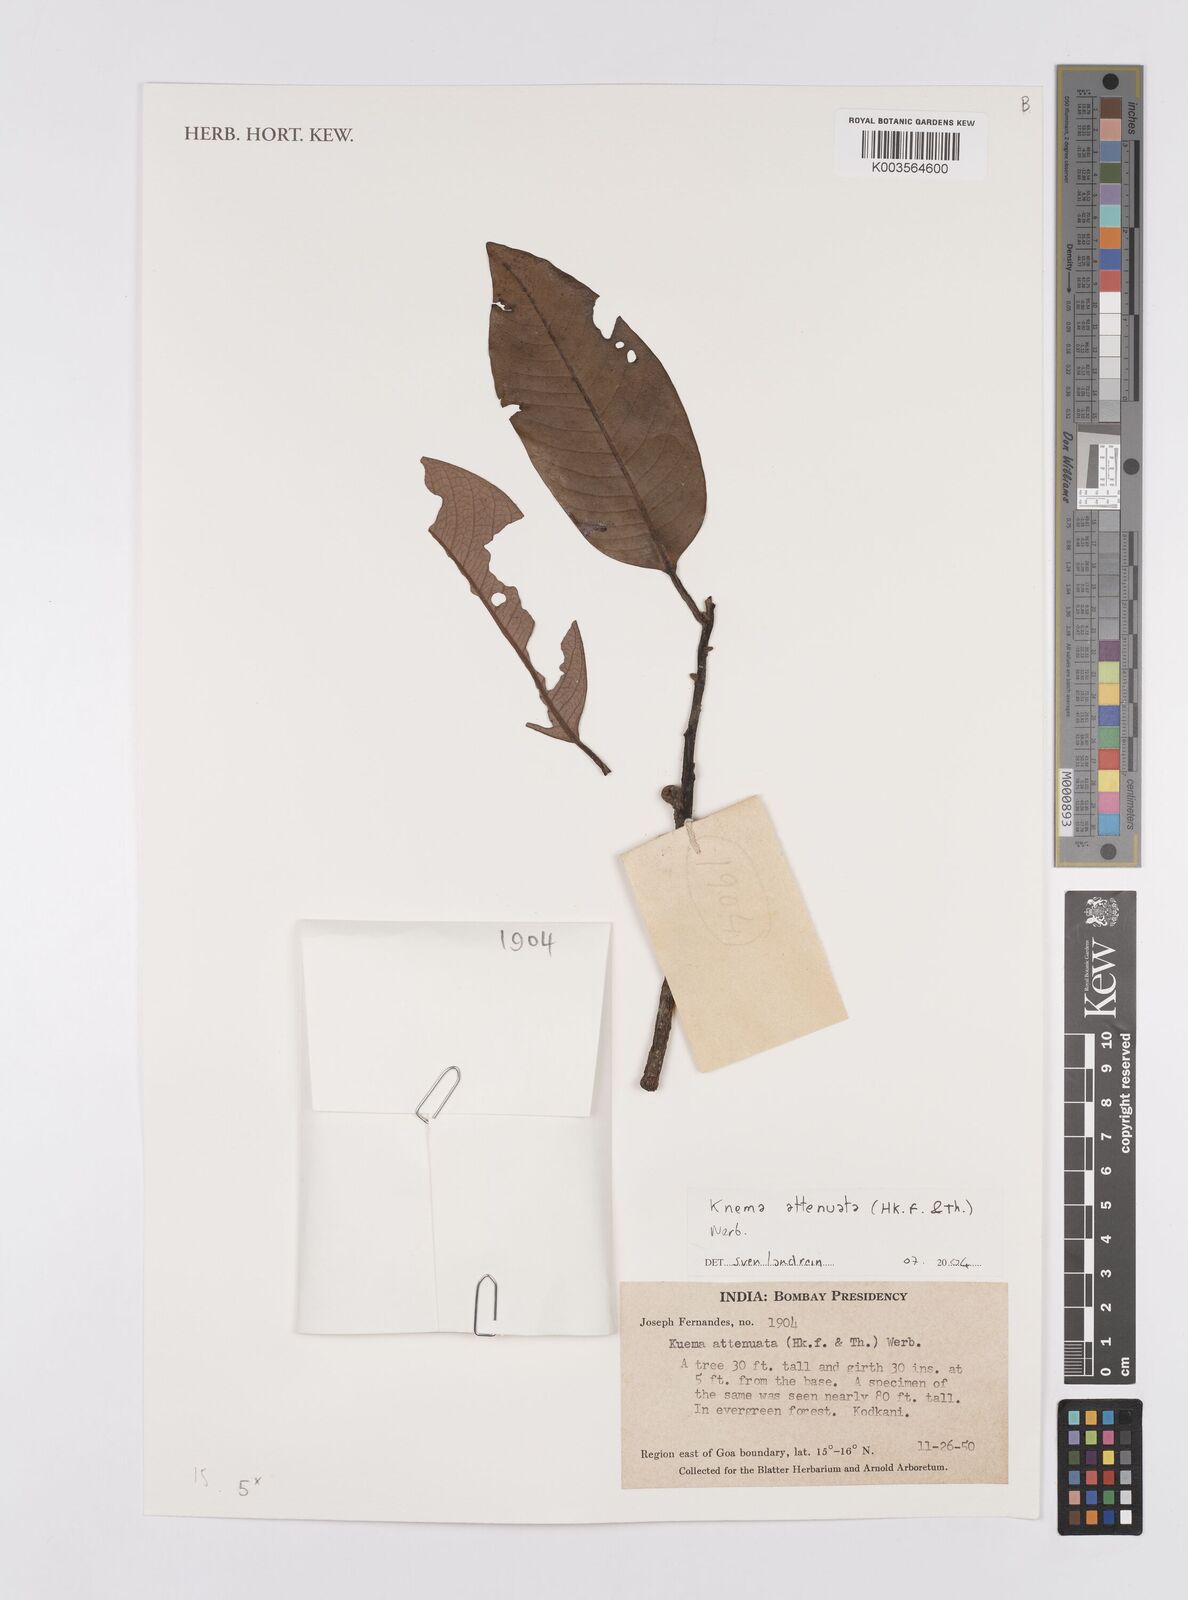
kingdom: Plantae
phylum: Tracheophyta
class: Magnoliopsida
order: Magnoliales
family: Myristicaceae
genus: Knema
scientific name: Knema attenuata
